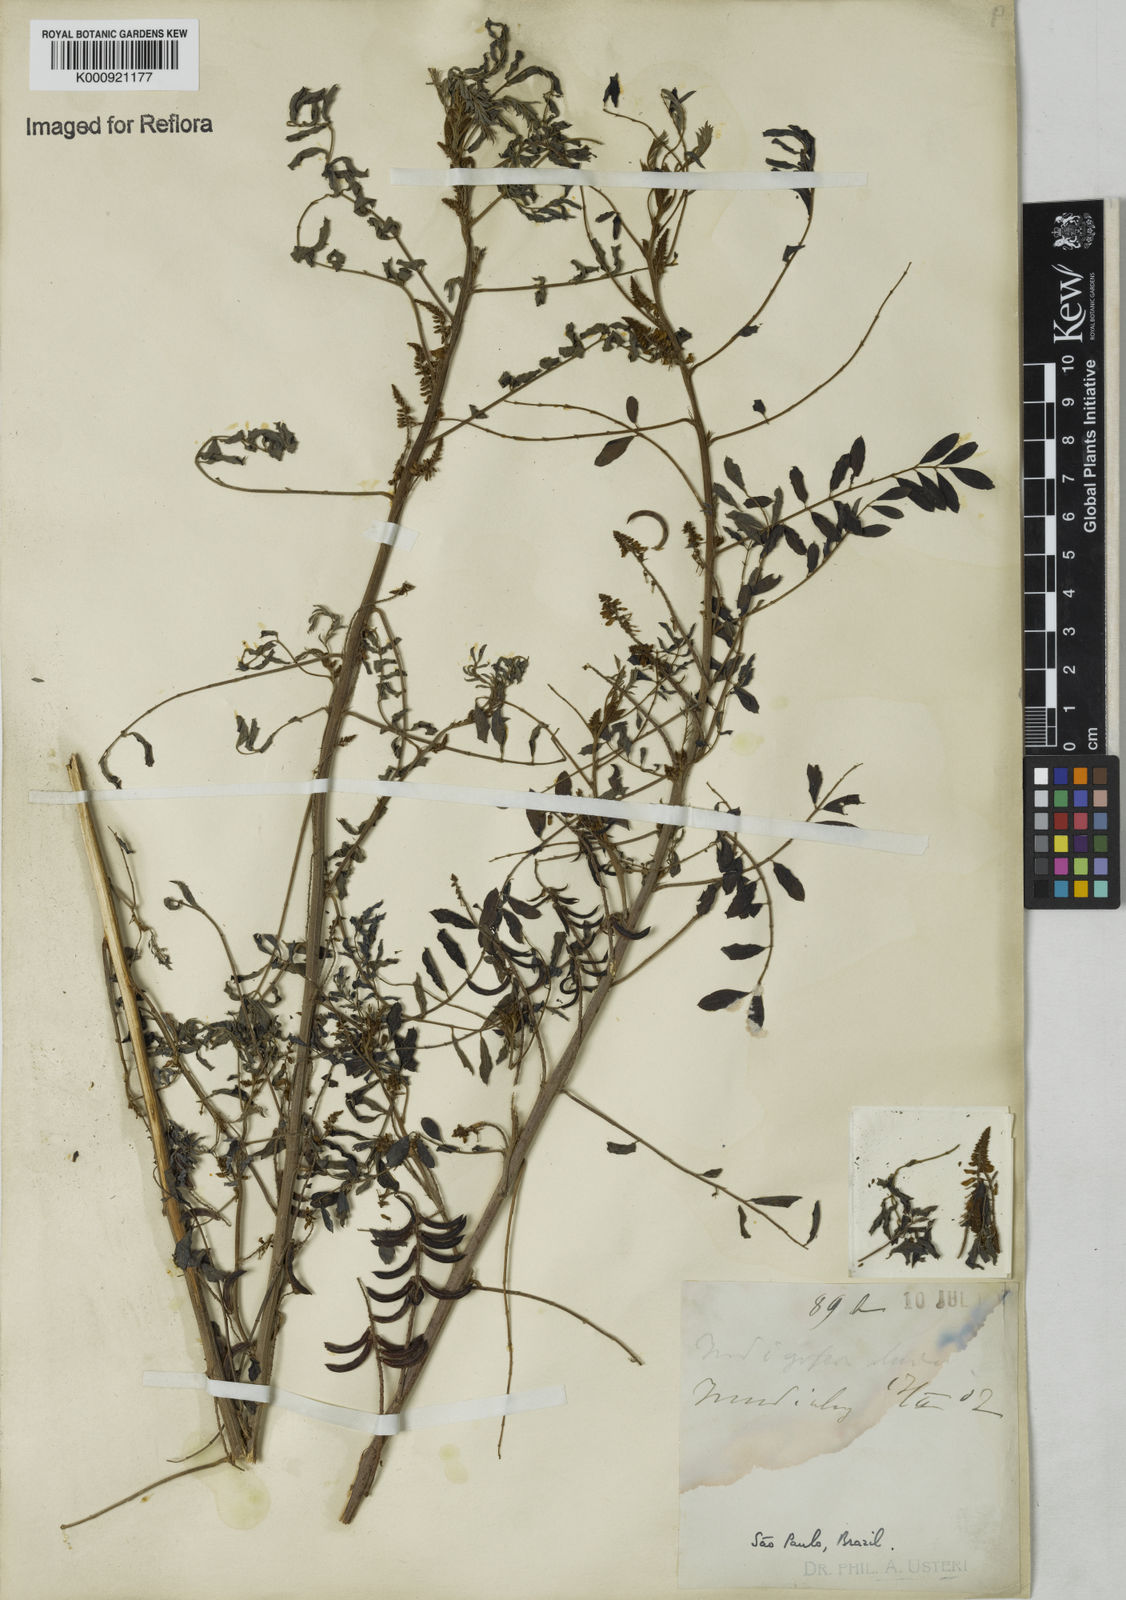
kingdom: Plantae
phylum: Tracheophyta
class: Magnoliopsida
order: Fabales
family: Fabaceae
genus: Indigofera
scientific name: Indigofera suffruticosa
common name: Anil de pasto
